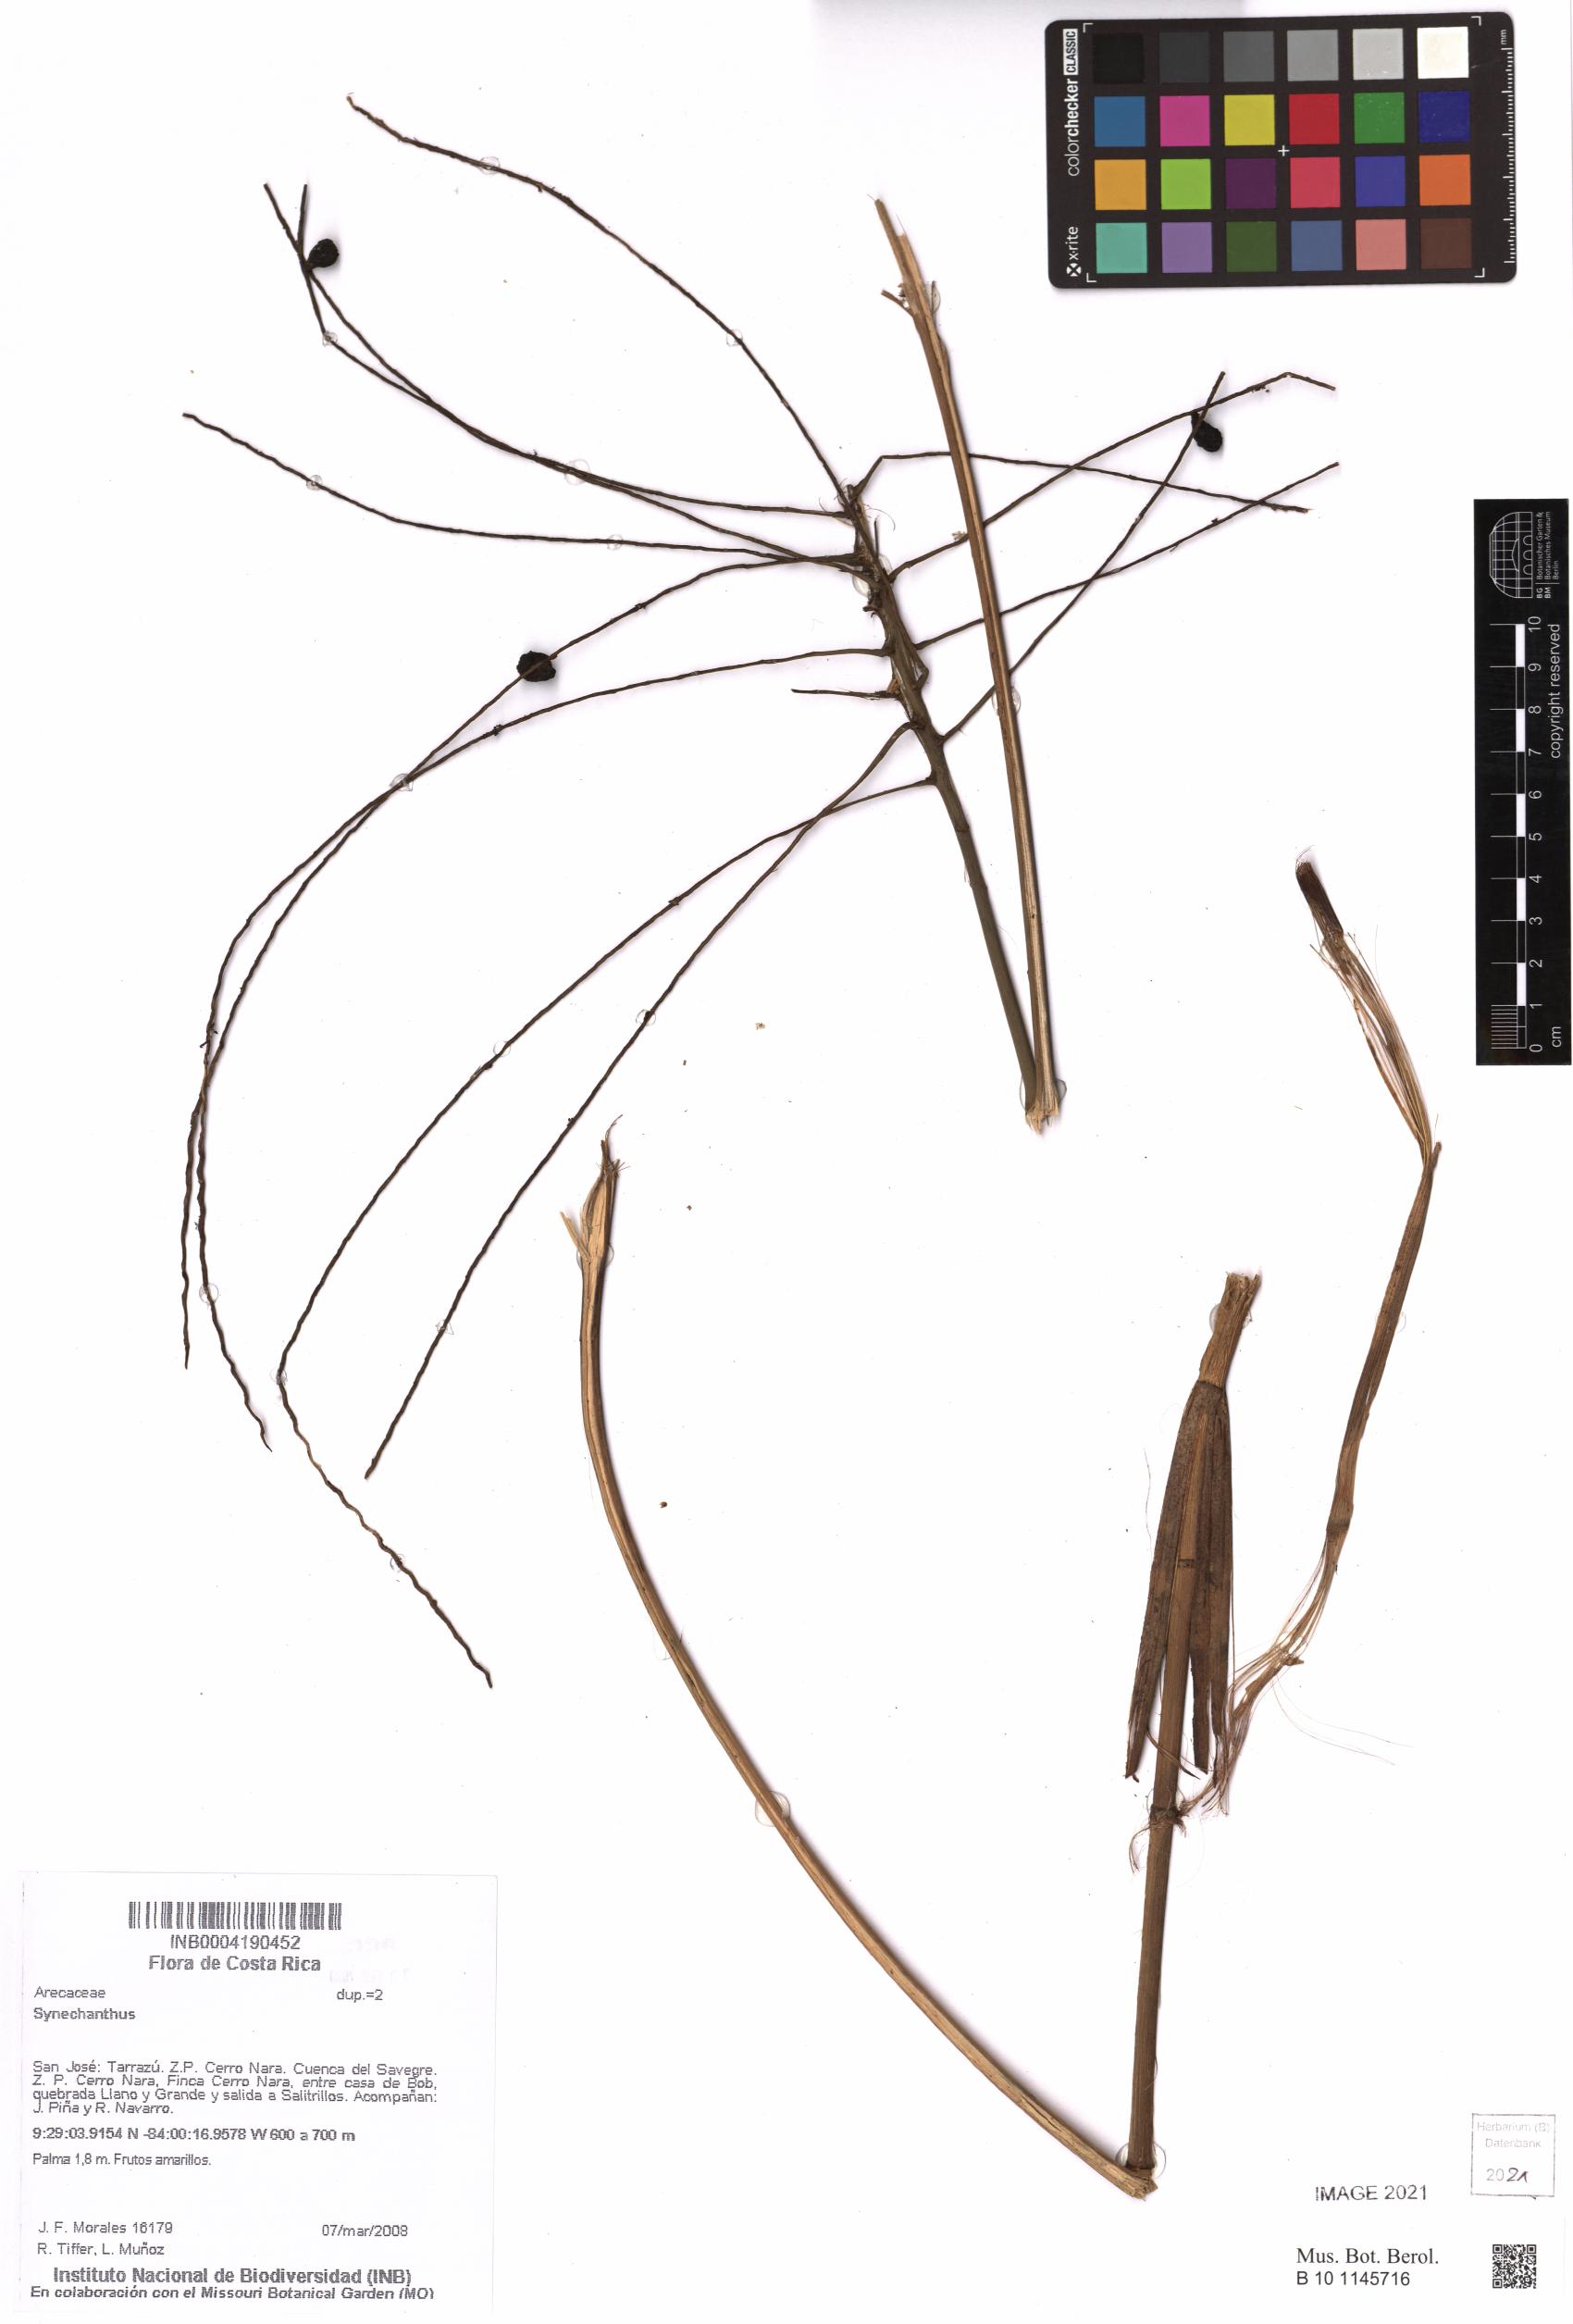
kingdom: Plantae
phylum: Tracheophyta
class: Liliopsida
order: Arecales
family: Arecaceae
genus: Synechanthus
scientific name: Synechanthus
